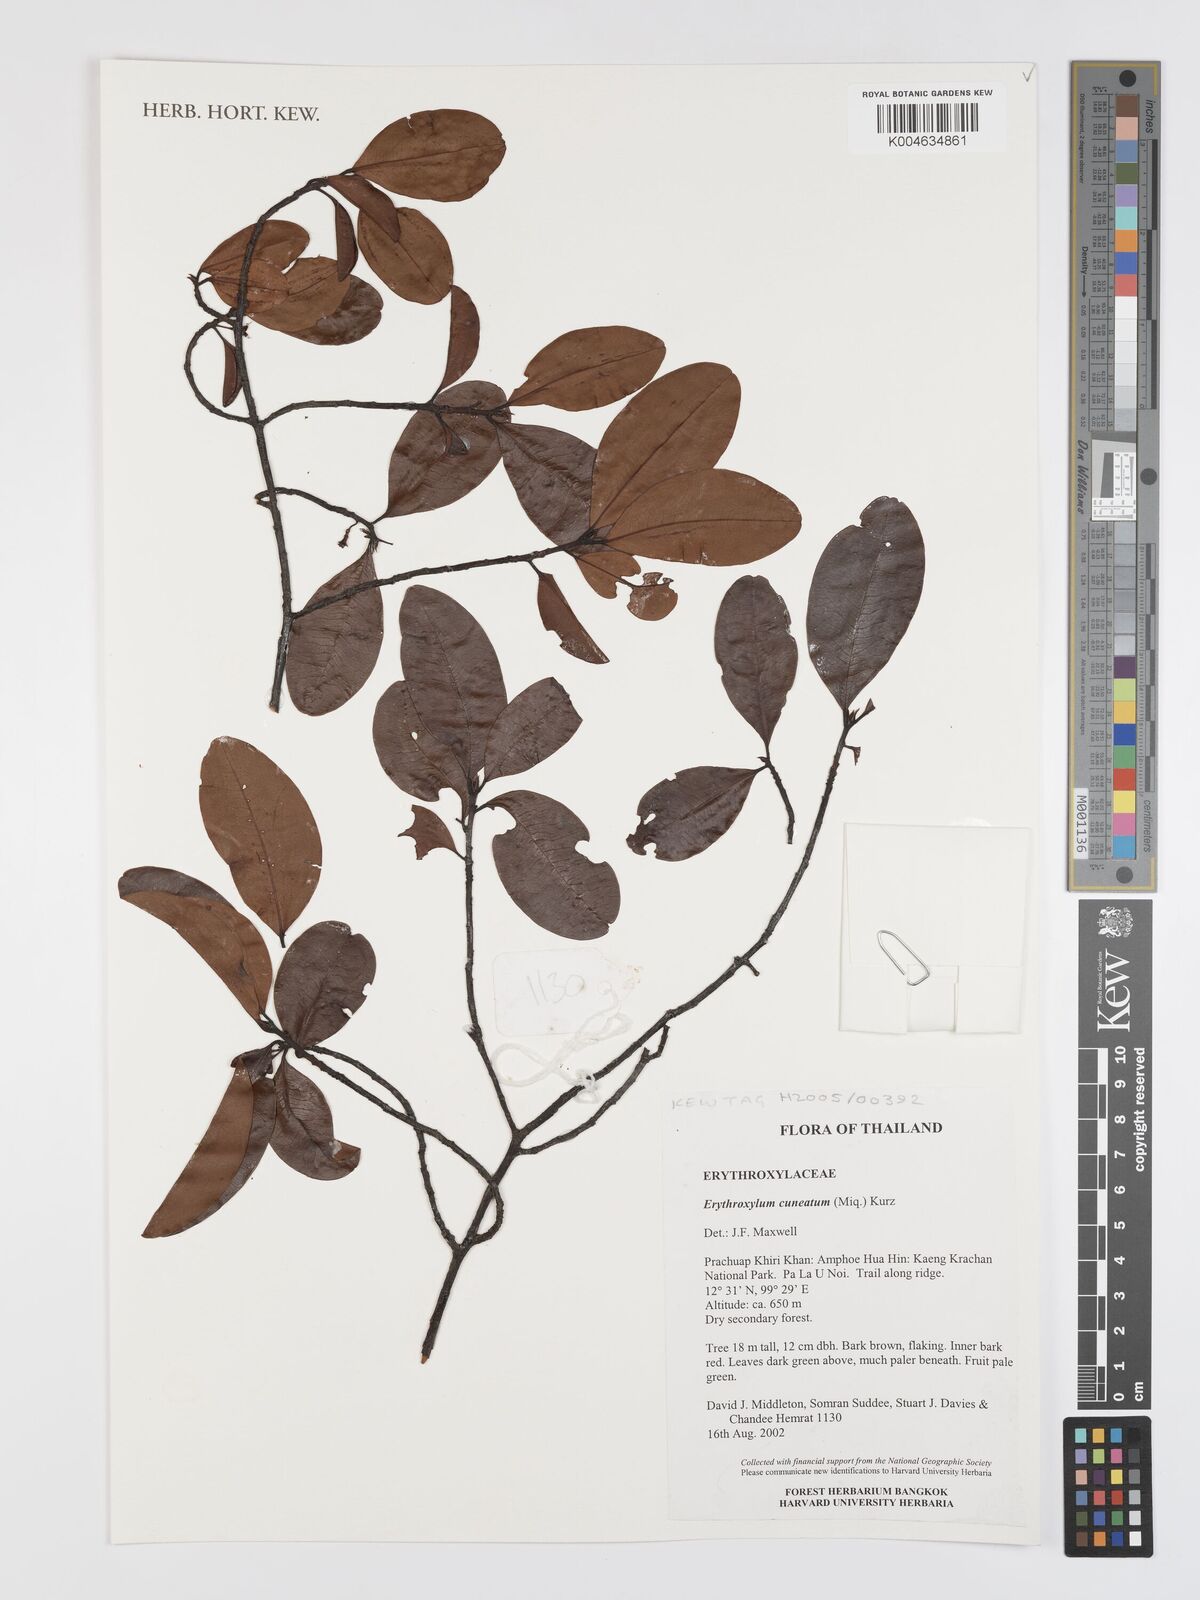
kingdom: Plantae
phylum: Tracheophyta
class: Magnoliopsida
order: Malpighiales
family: Erythroxylaceae
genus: Erythroxylum
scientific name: Erythroxylum cuneatum
